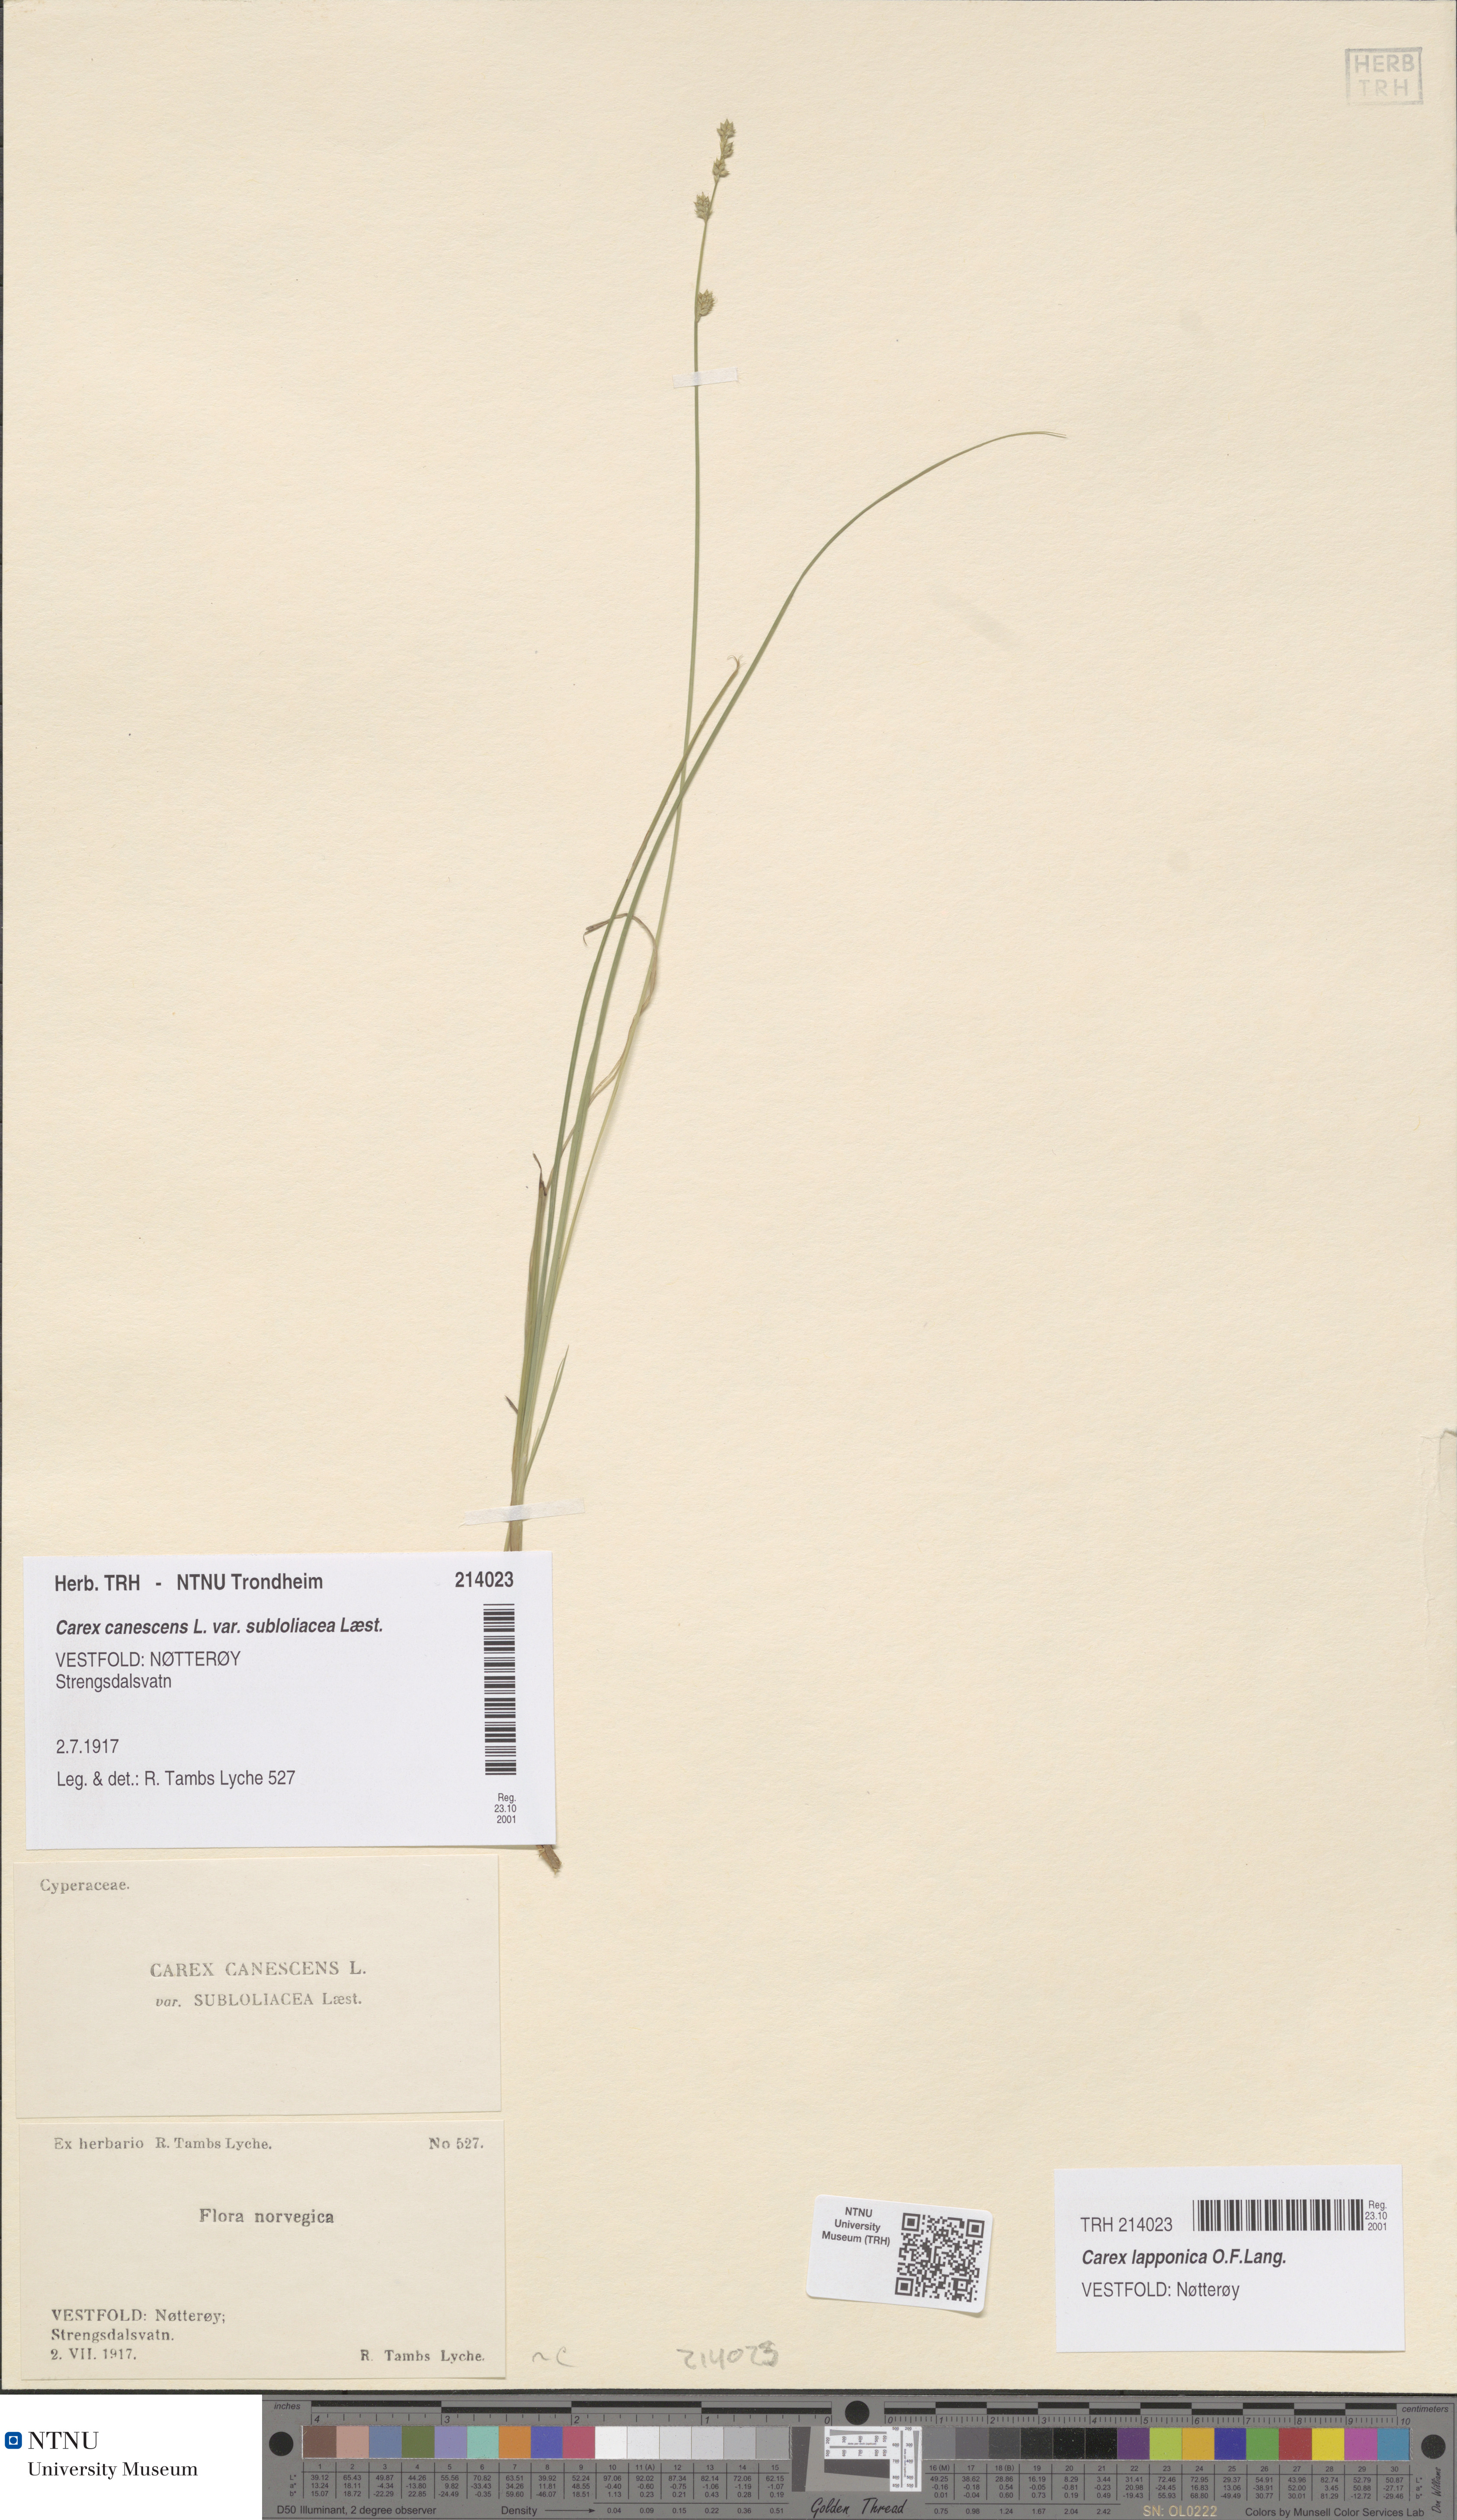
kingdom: Plantae
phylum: Tracheophyta
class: Liliopsida
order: Poales
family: Cyperaceae
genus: Carex
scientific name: Carex canescens
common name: White sedge
